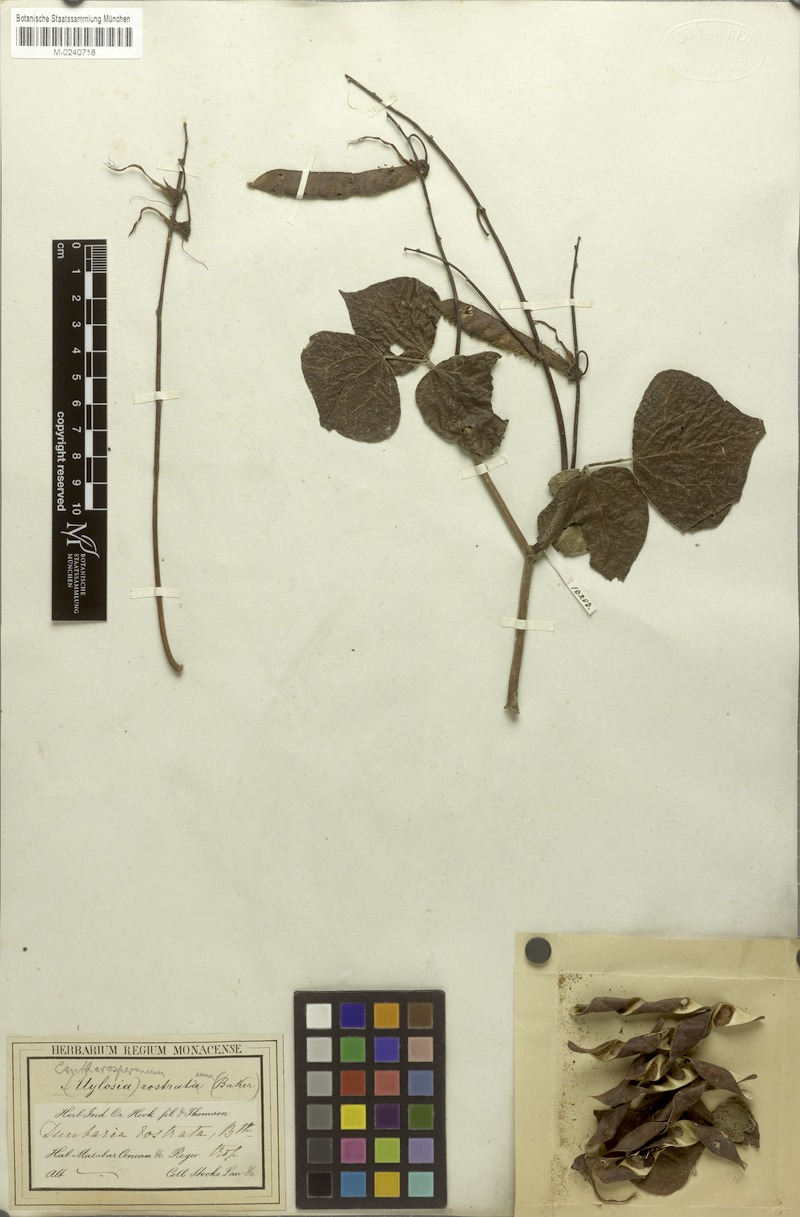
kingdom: Plantae
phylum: Tracheophyta
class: Magnoliopsida
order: Fabales
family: Fabaceae
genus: Dunbaria
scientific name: Dunbaria glandulosa
